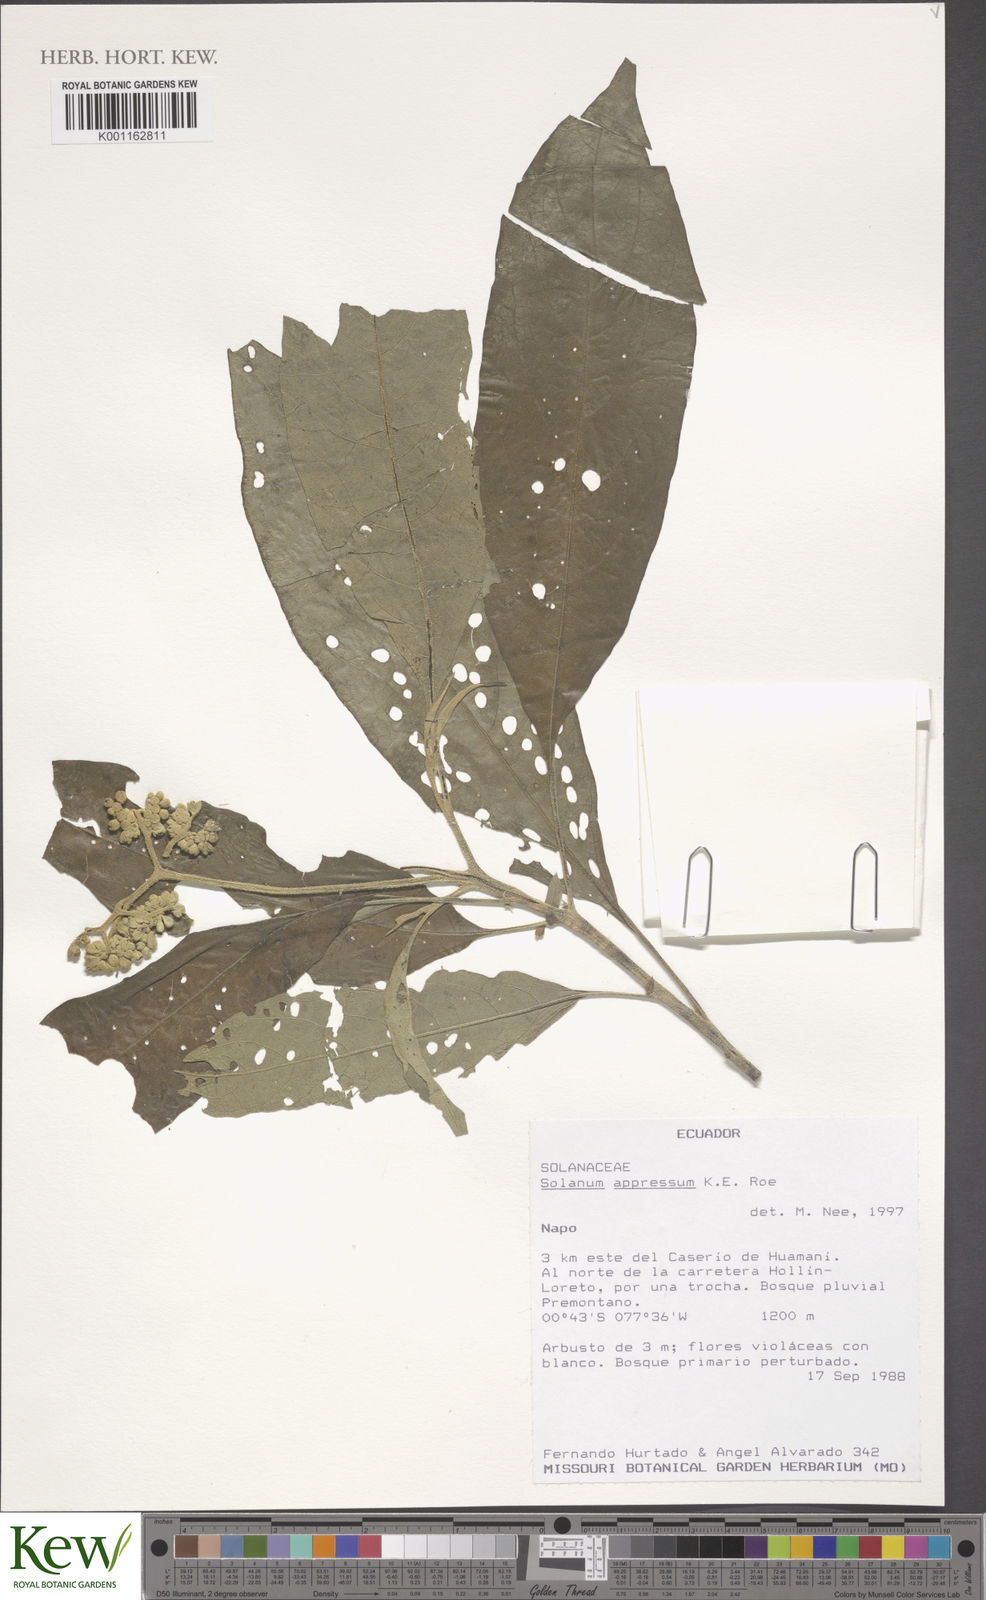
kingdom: Plantae
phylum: Tracheophyta
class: Magnoliopsida
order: Solanales
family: Solanaceae
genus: Solanum
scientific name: Solanum appressum
